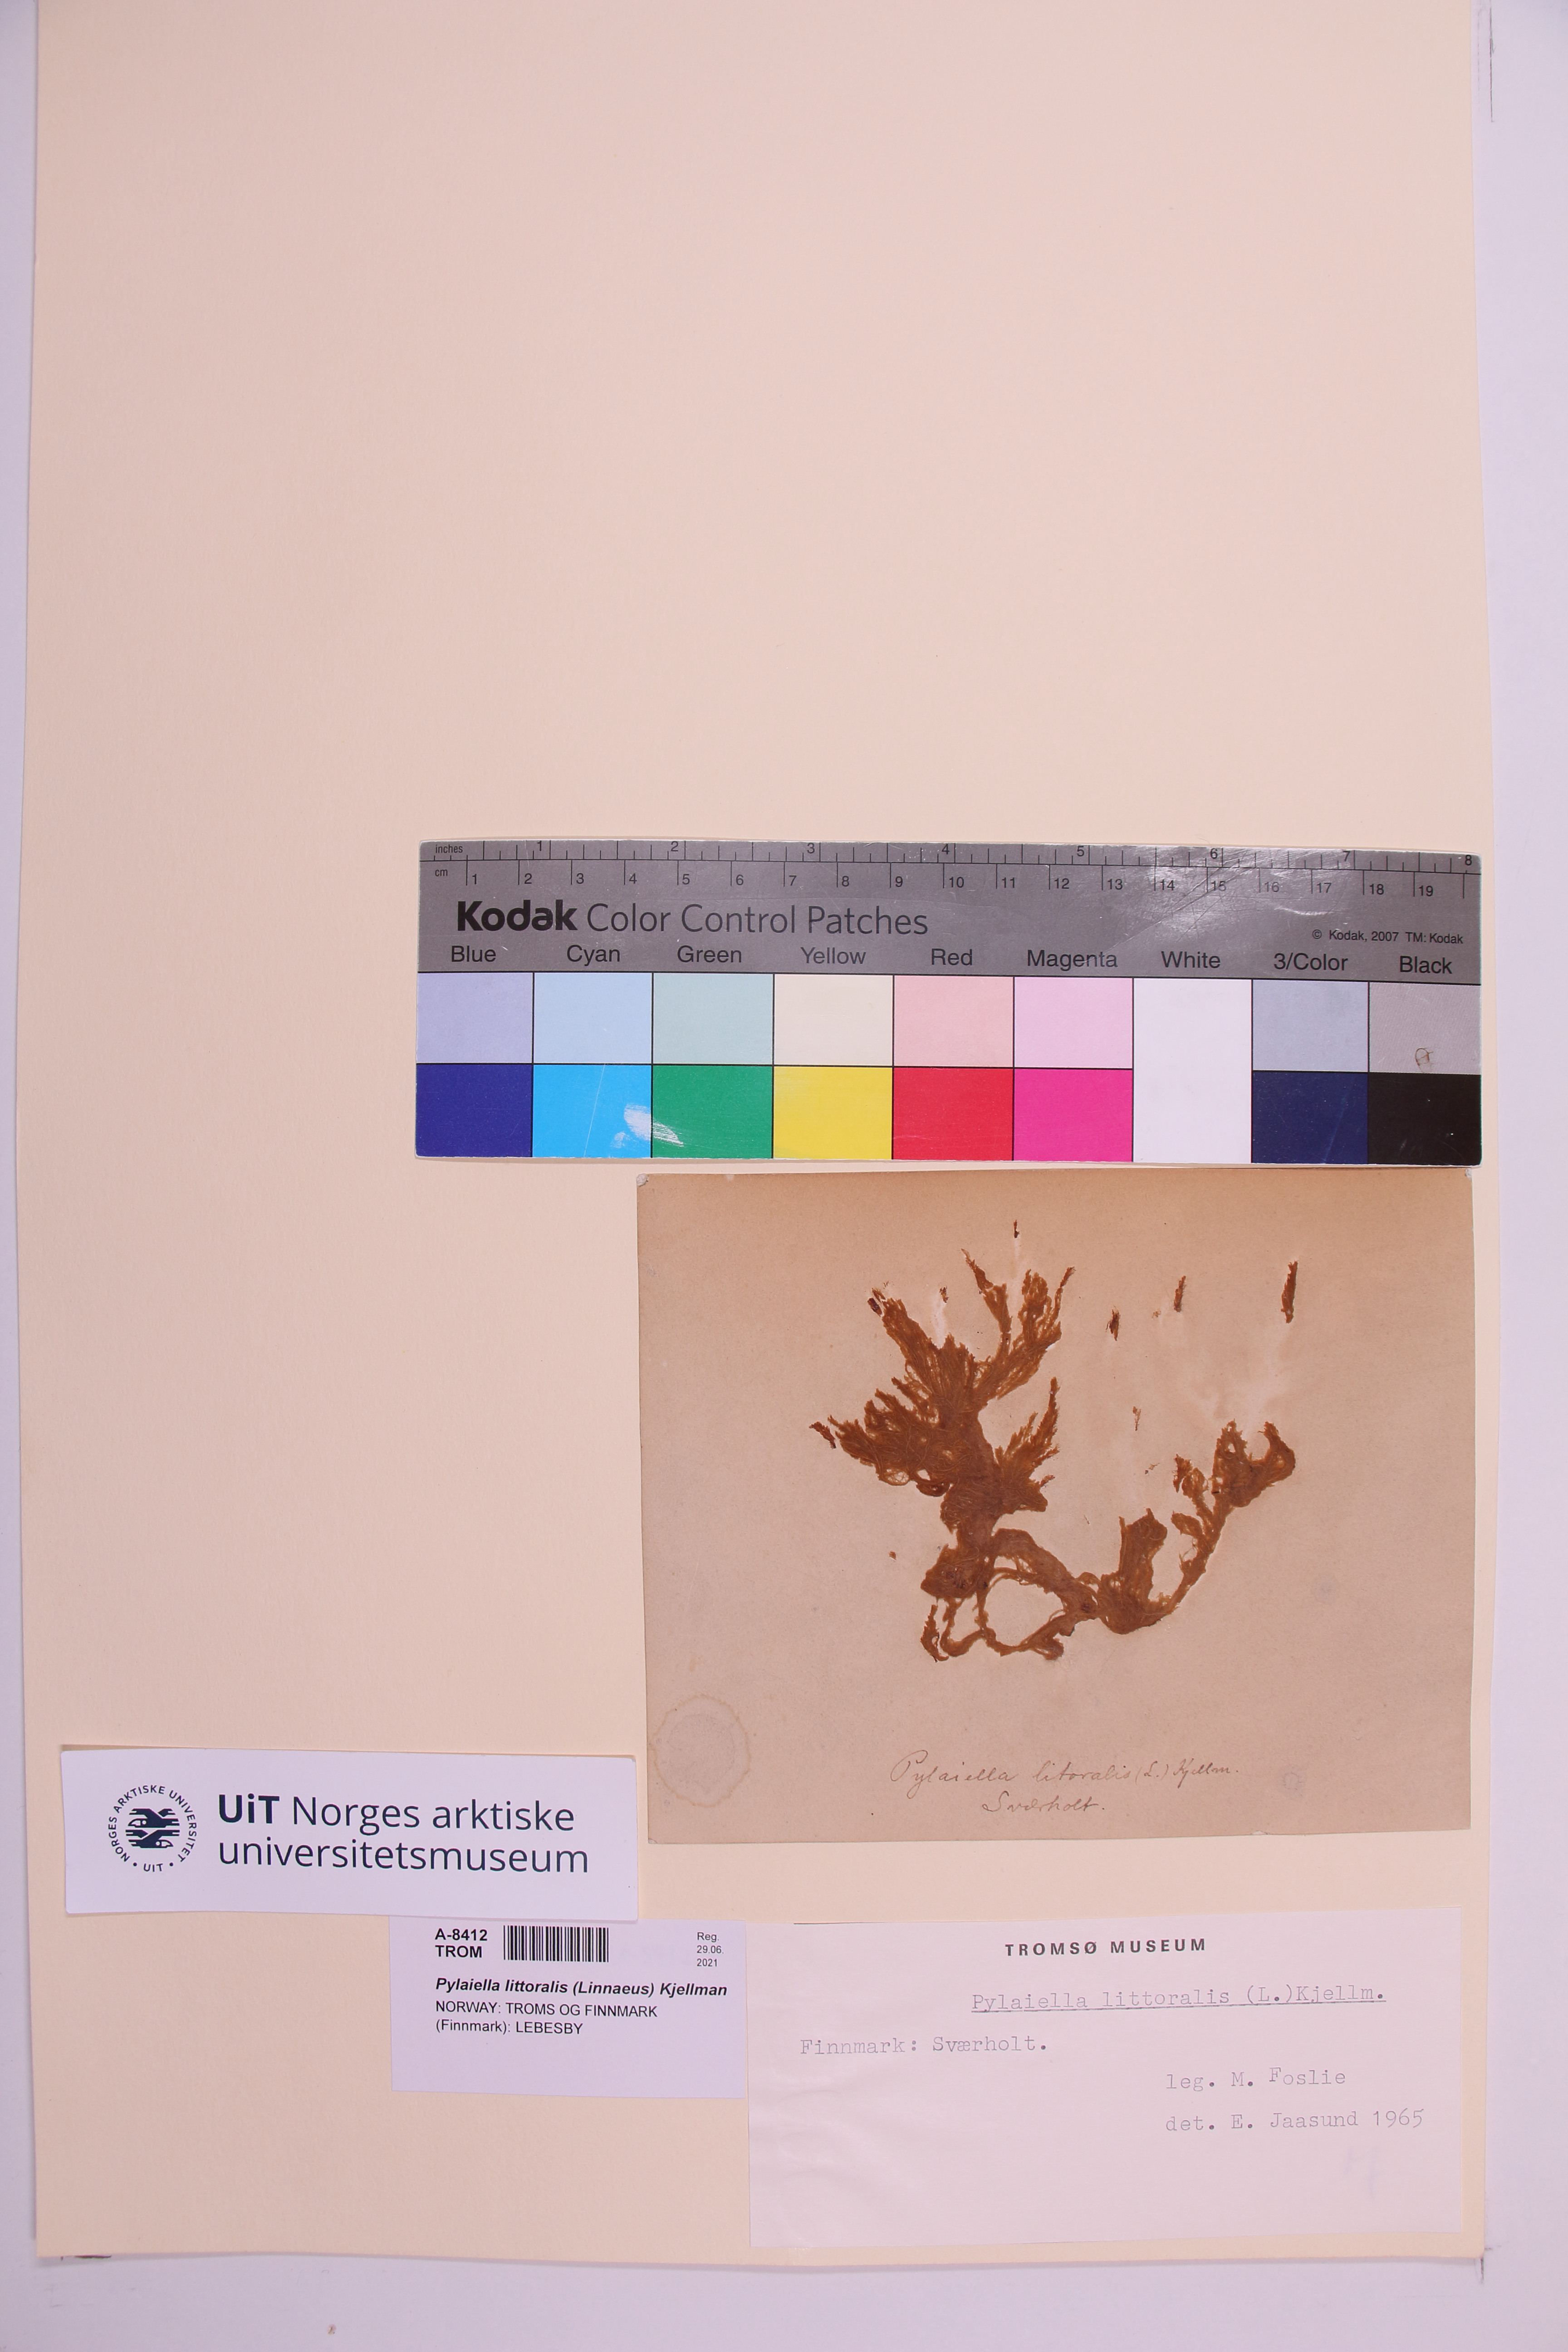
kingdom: Chromista
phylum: Ochrophyta
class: Phaeophyceae
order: Ectocarpales
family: Acinetosporaceae
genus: Pylaiella
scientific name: Pylaiella littoralis
